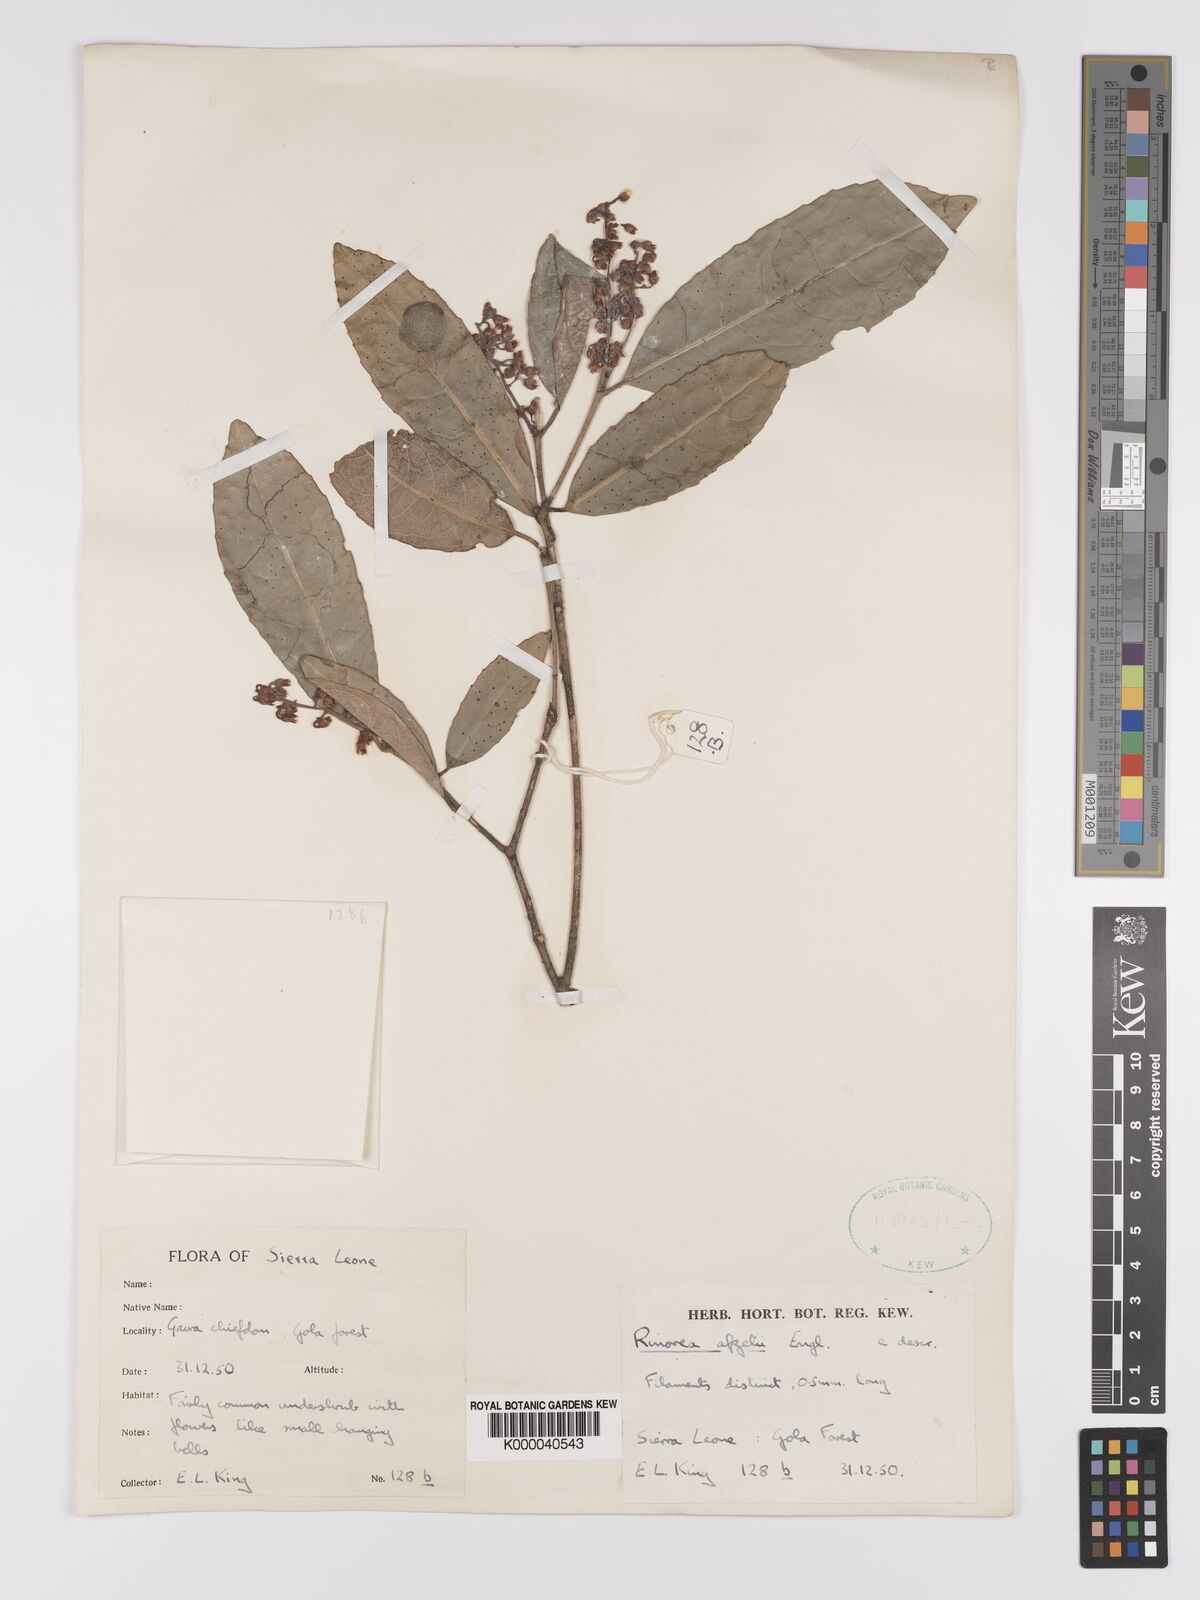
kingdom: Plantae
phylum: Tracheophyta
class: Magnoliopsida
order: Malpighiales
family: Violaceae
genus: Rinorea
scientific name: Rinorea afzelii
